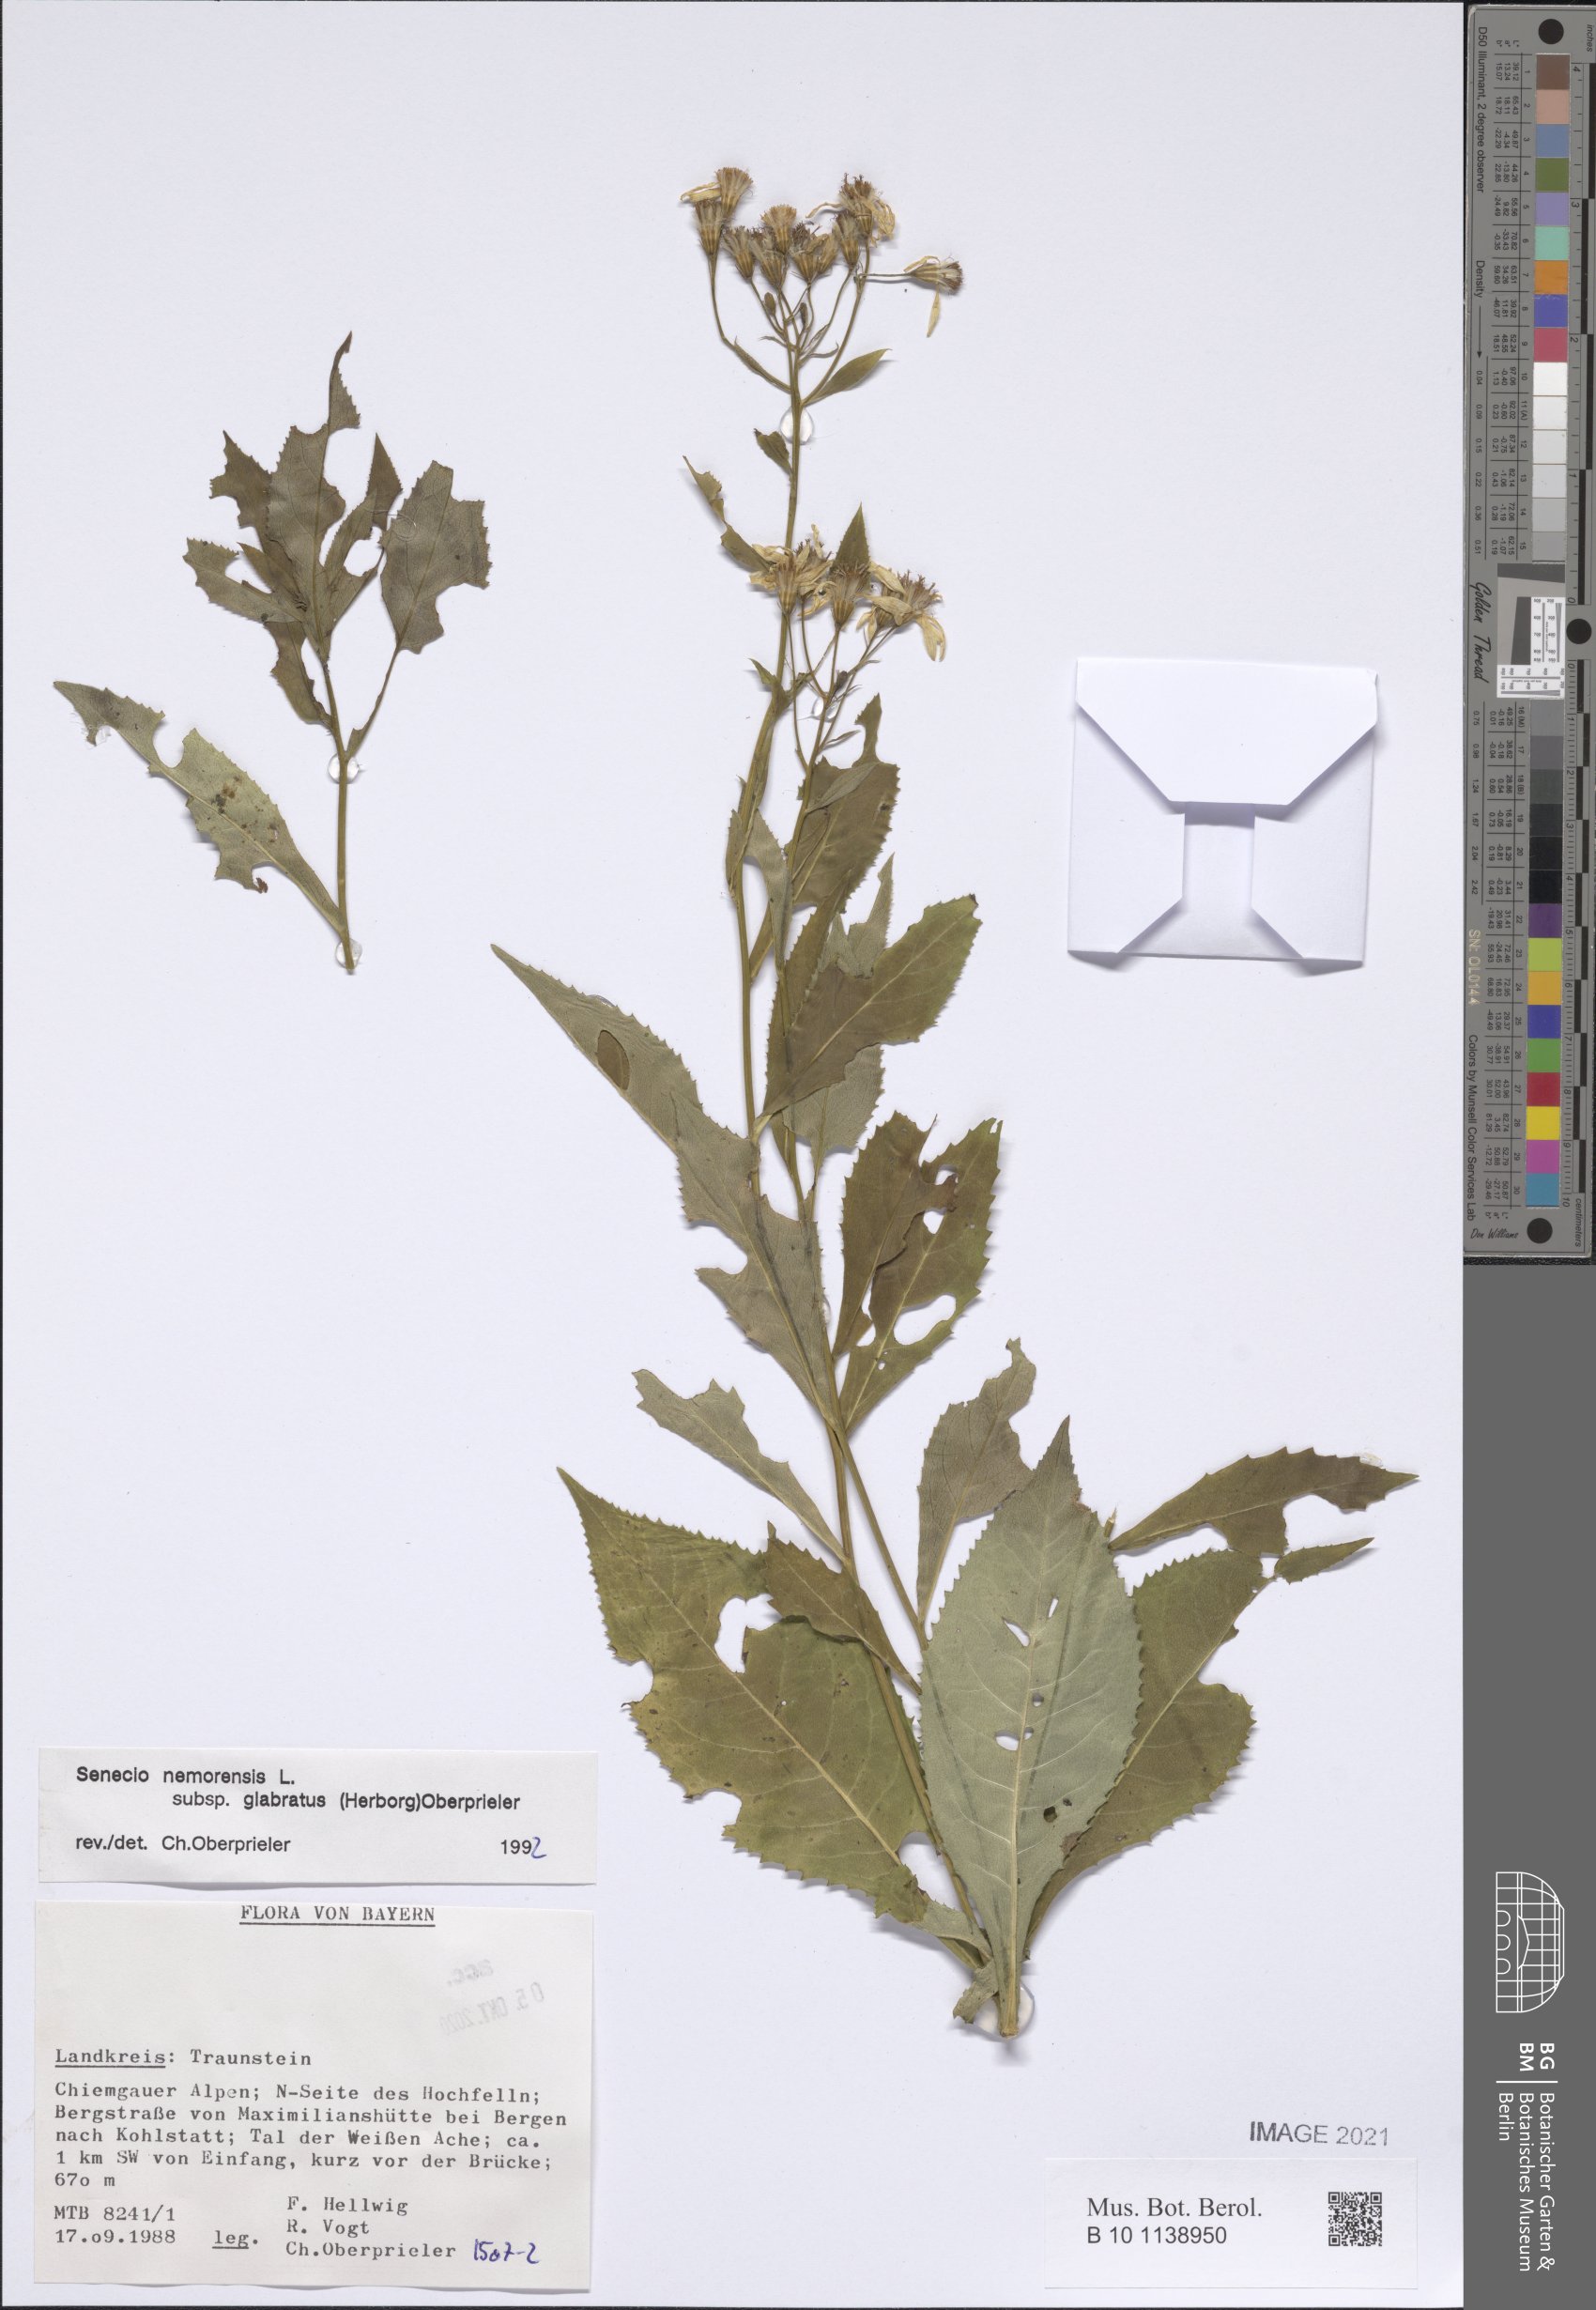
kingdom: Plantae
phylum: Tracheophyta
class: Magnoliopsida
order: Asterales
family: Asteraceae
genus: Senecio
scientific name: Senecio germanicus
